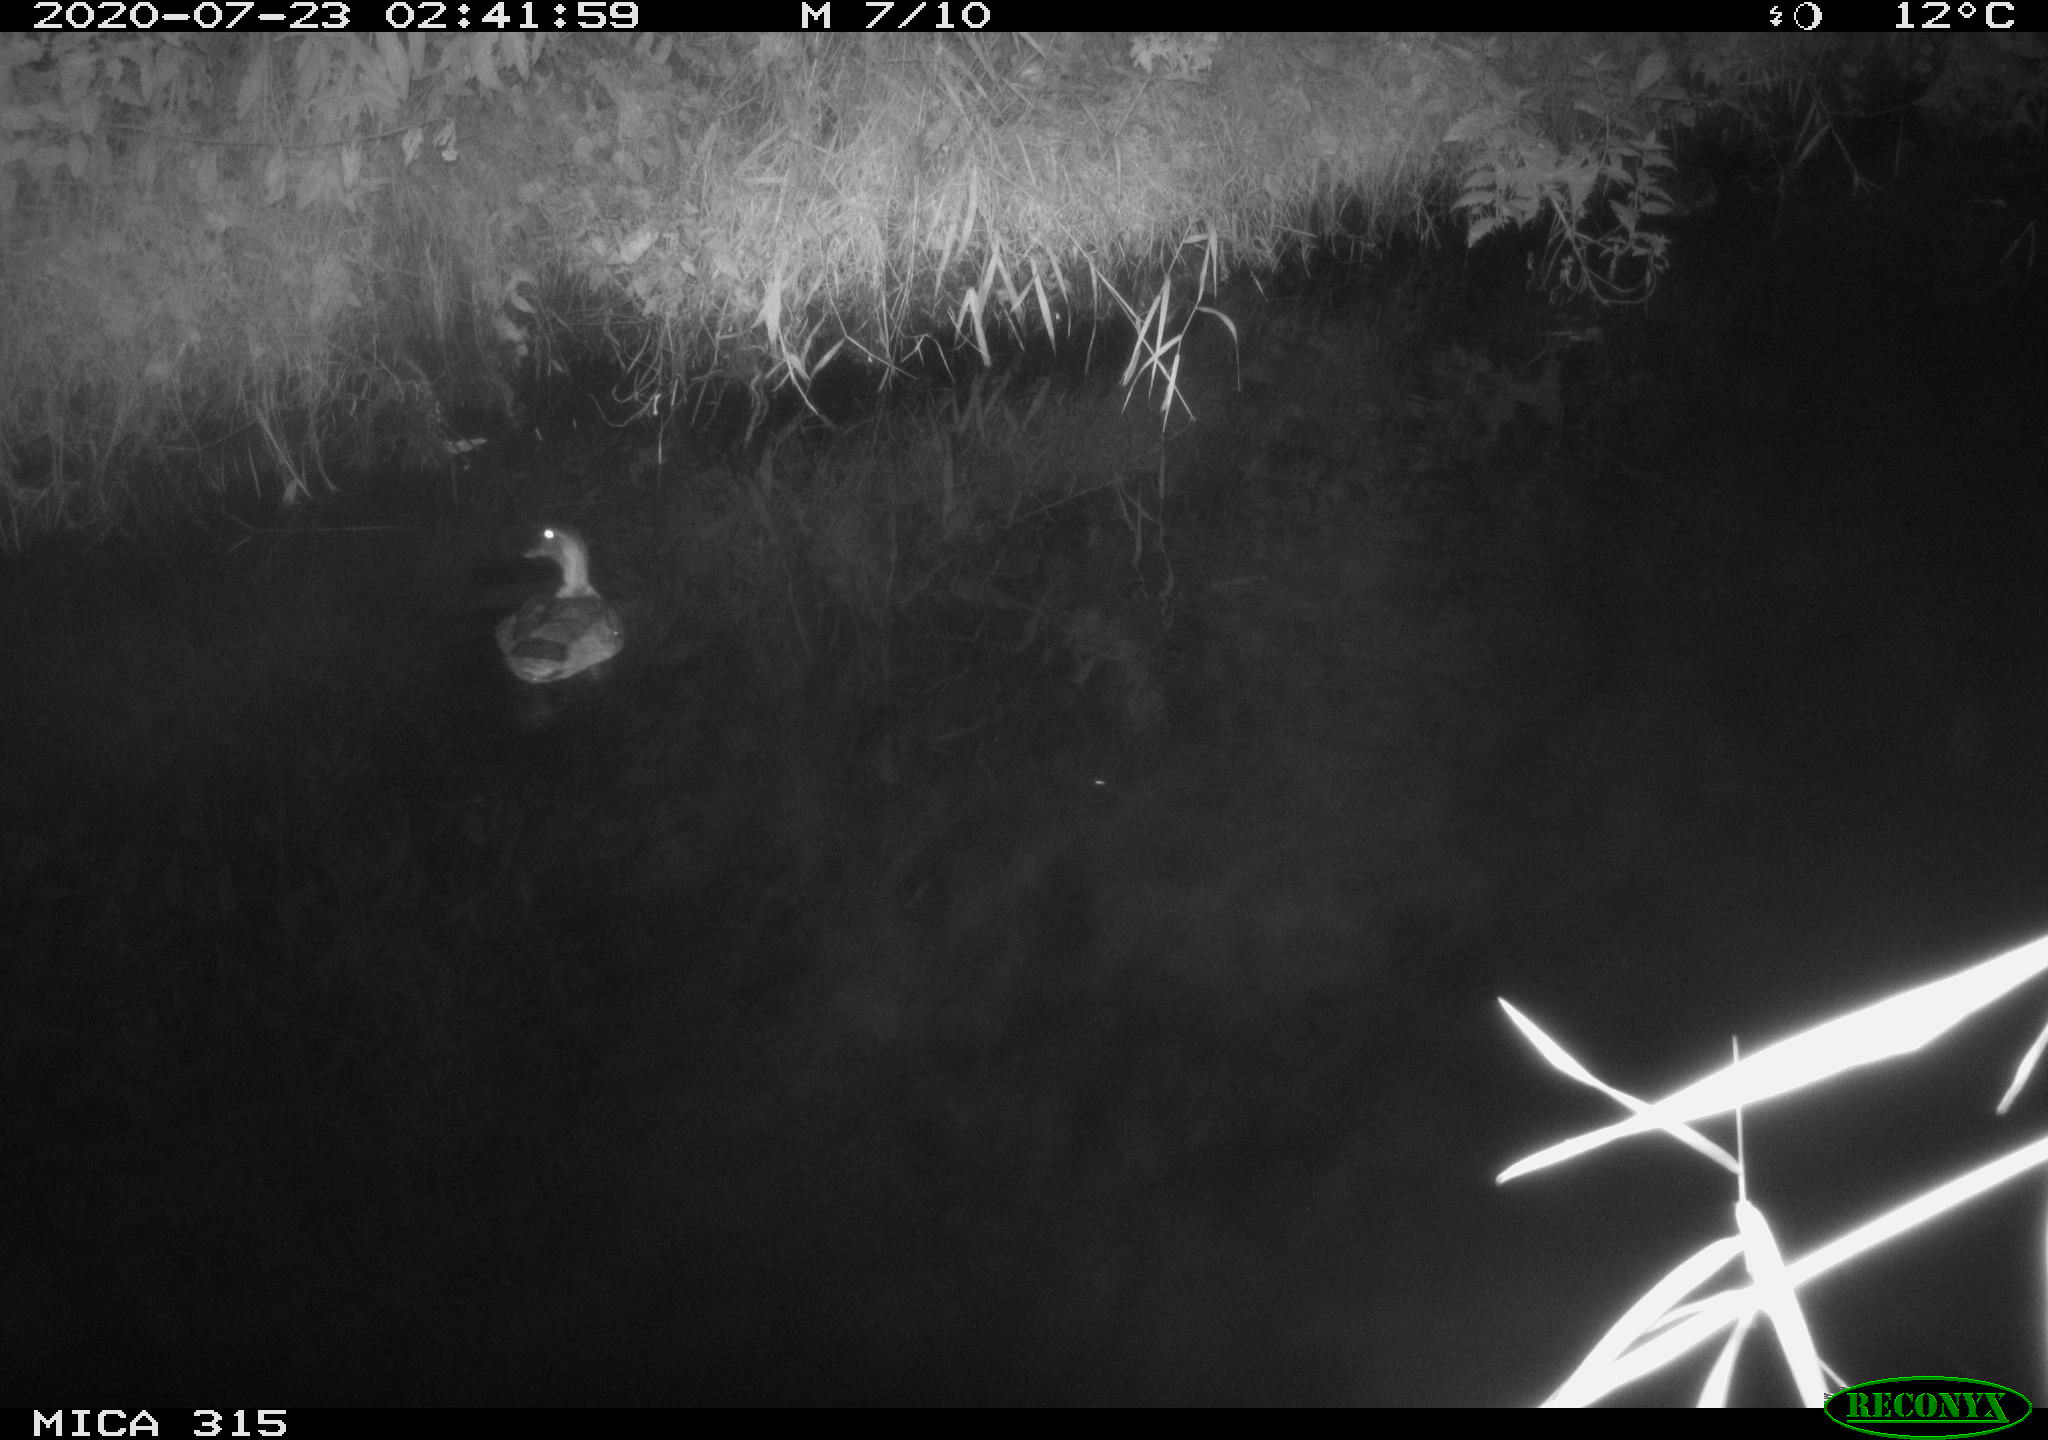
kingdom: Animalia
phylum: Chordata
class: Aves
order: Anseriformes
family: Anatidae
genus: Anas
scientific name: Anas platyrhynchos
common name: Mallard
